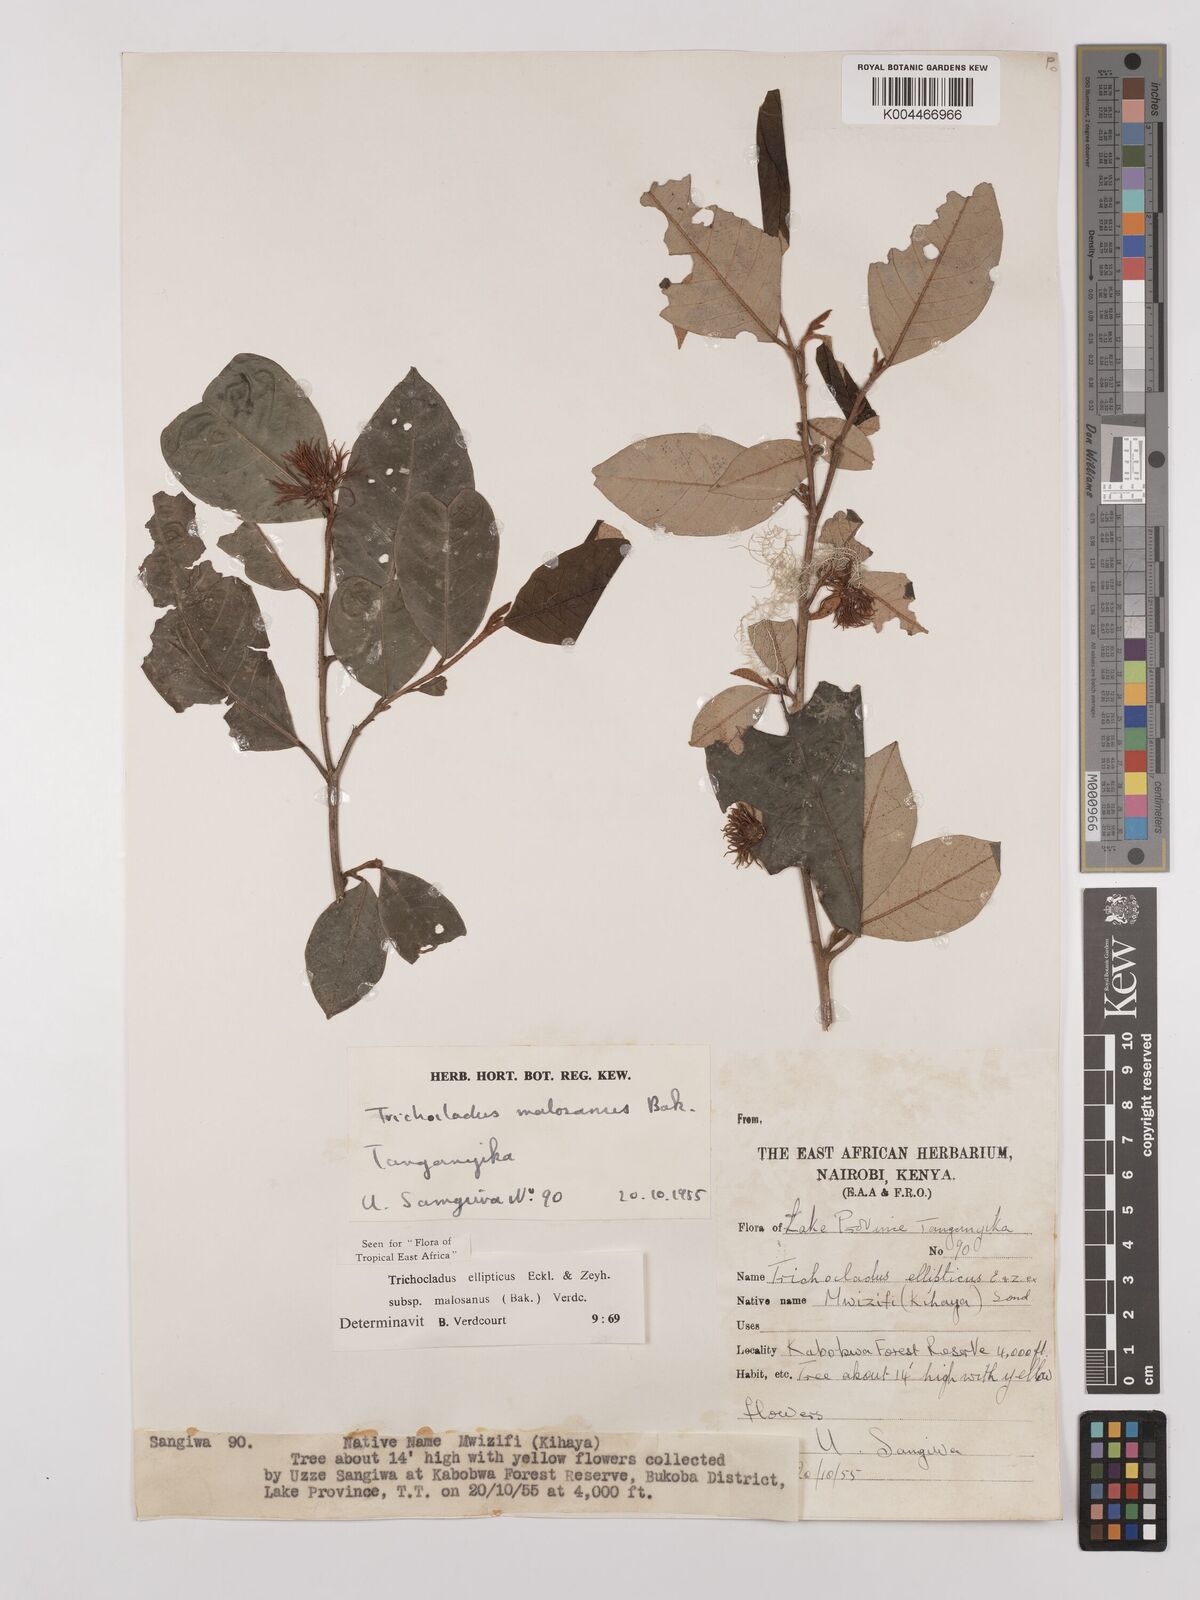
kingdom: Plantae
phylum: Tracheophyta
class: Magnoliopsida
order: Saxifragales
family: Hamamelidaceae
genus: Trichocladus
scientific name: Trichocladus ellipticus
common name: White witch-hazel
